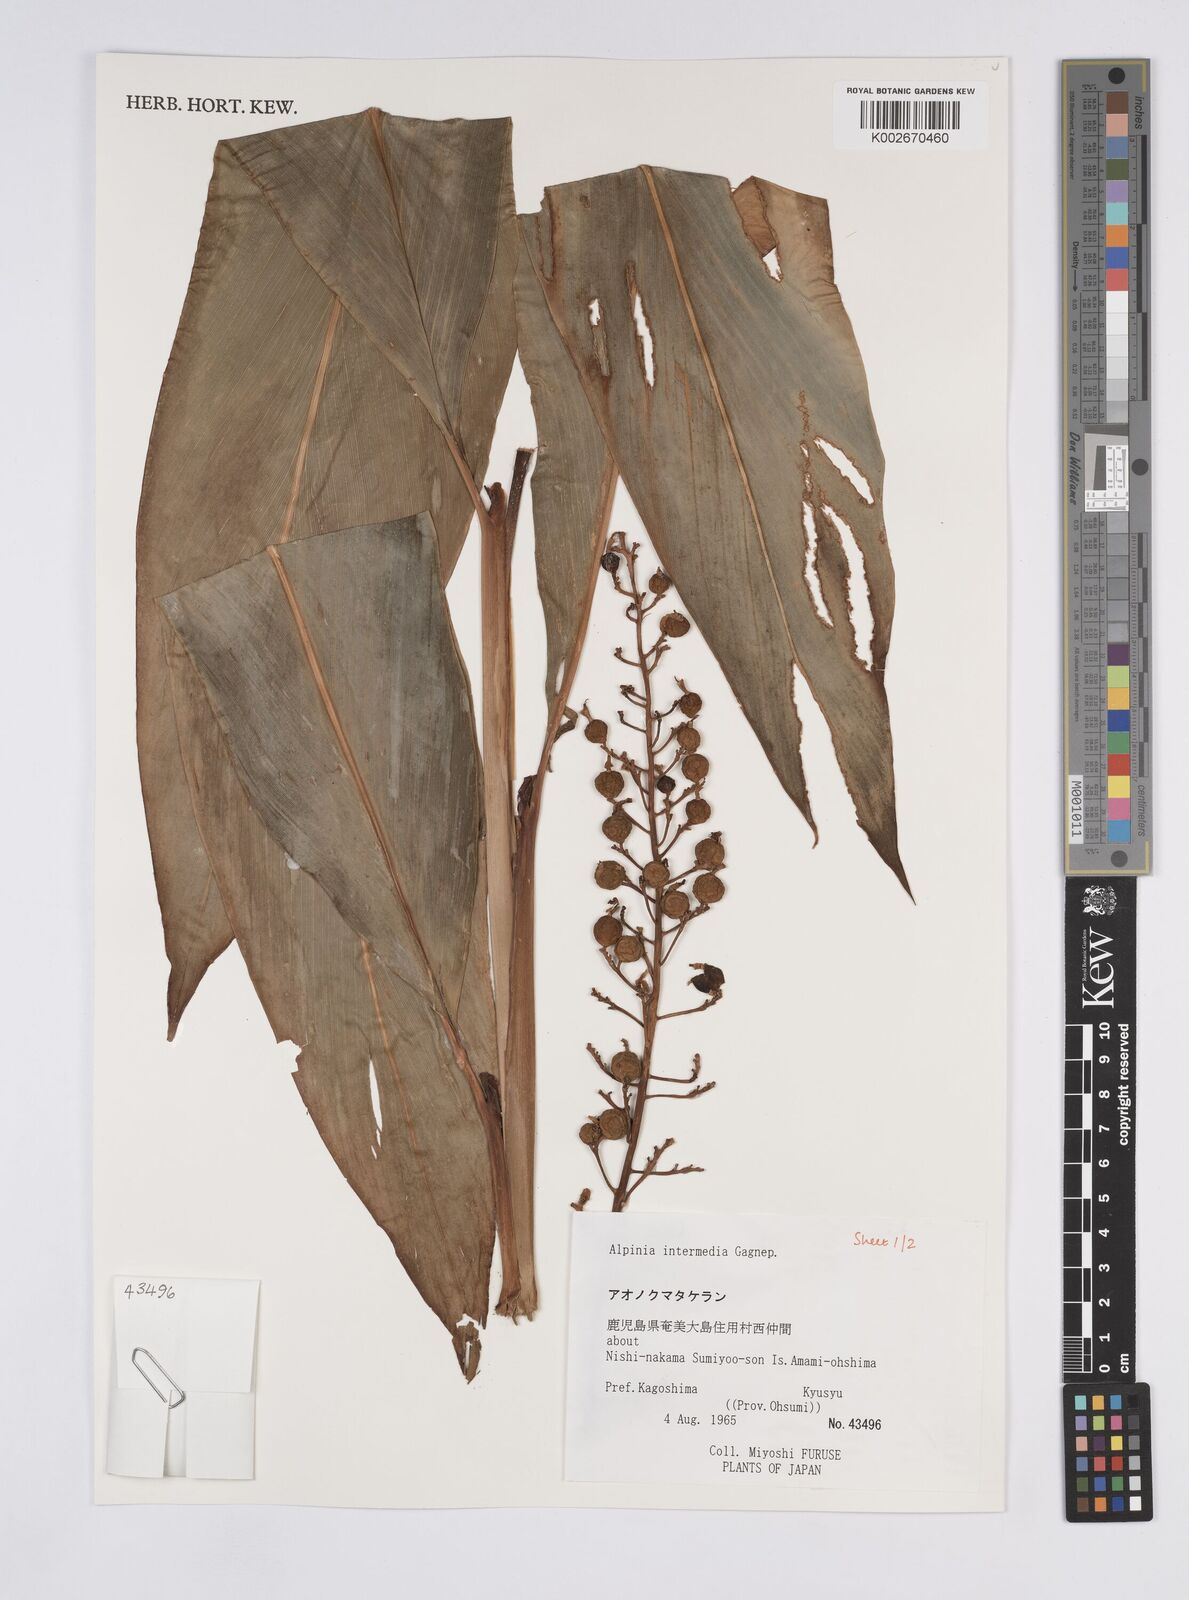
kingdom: Plantae
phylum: Tracheophyta
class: Liliopsida
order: Zingiberales
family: Zingiberaceae
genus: Alpinia
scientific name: Alpinia intermedia
